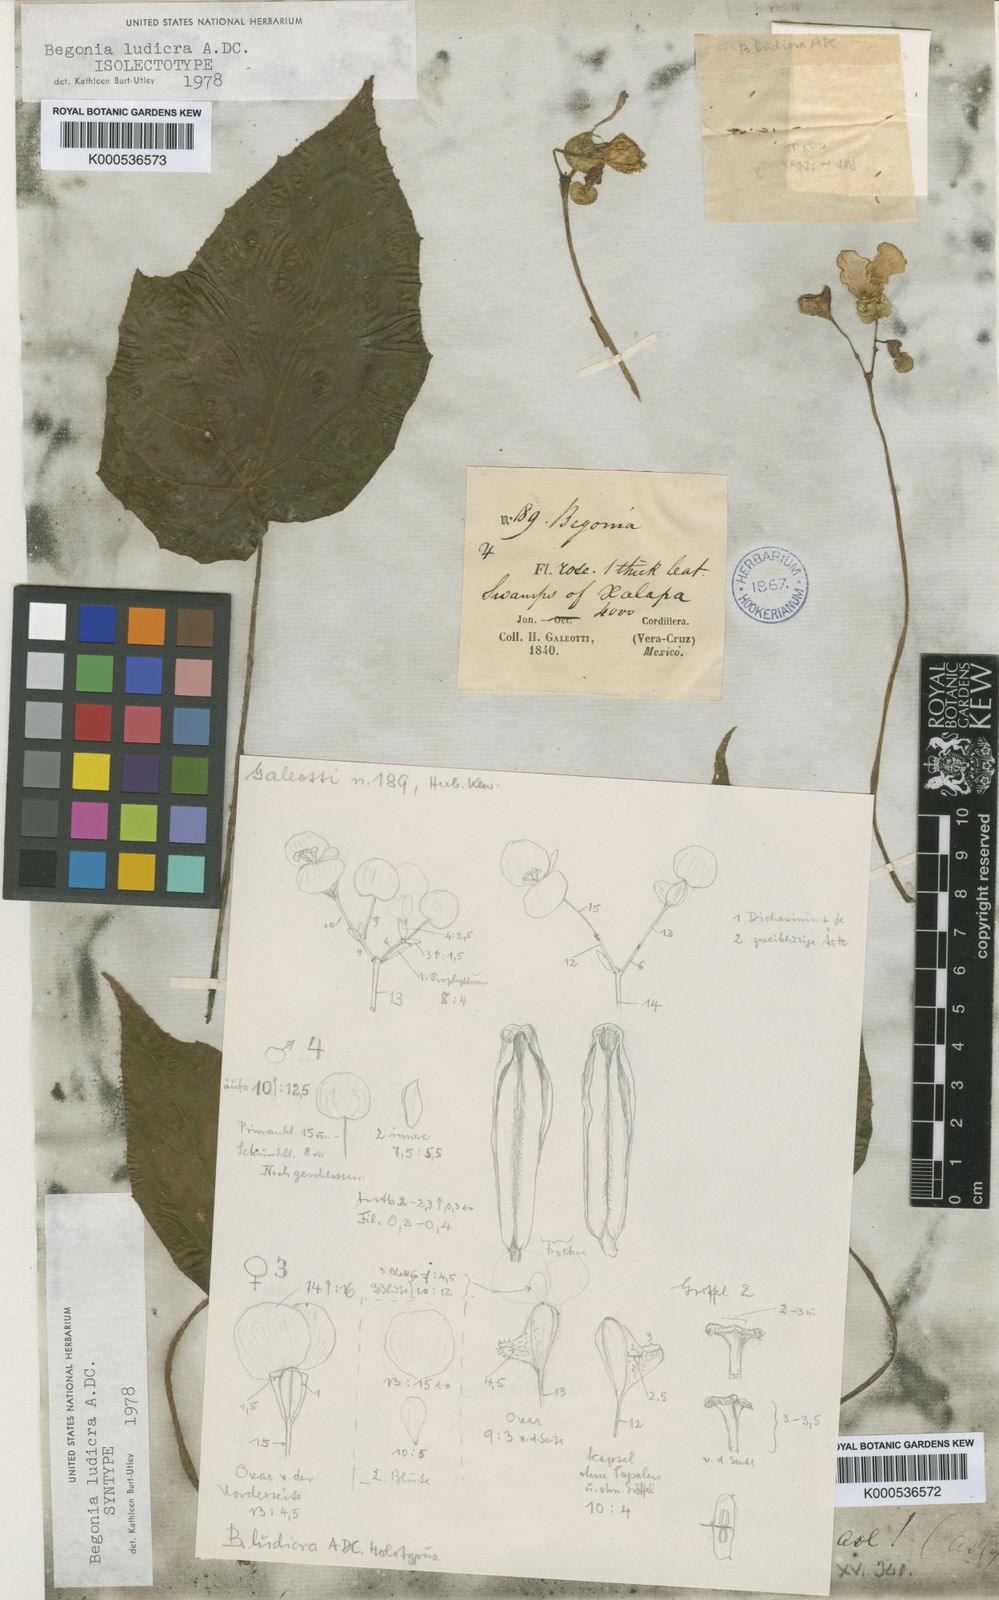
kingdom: Plantae
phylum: Tracheophyta
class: Magnoliopsida
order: Cucurbitales
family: Begoniaceae
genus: Begonia
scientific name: Begonia ludicra
